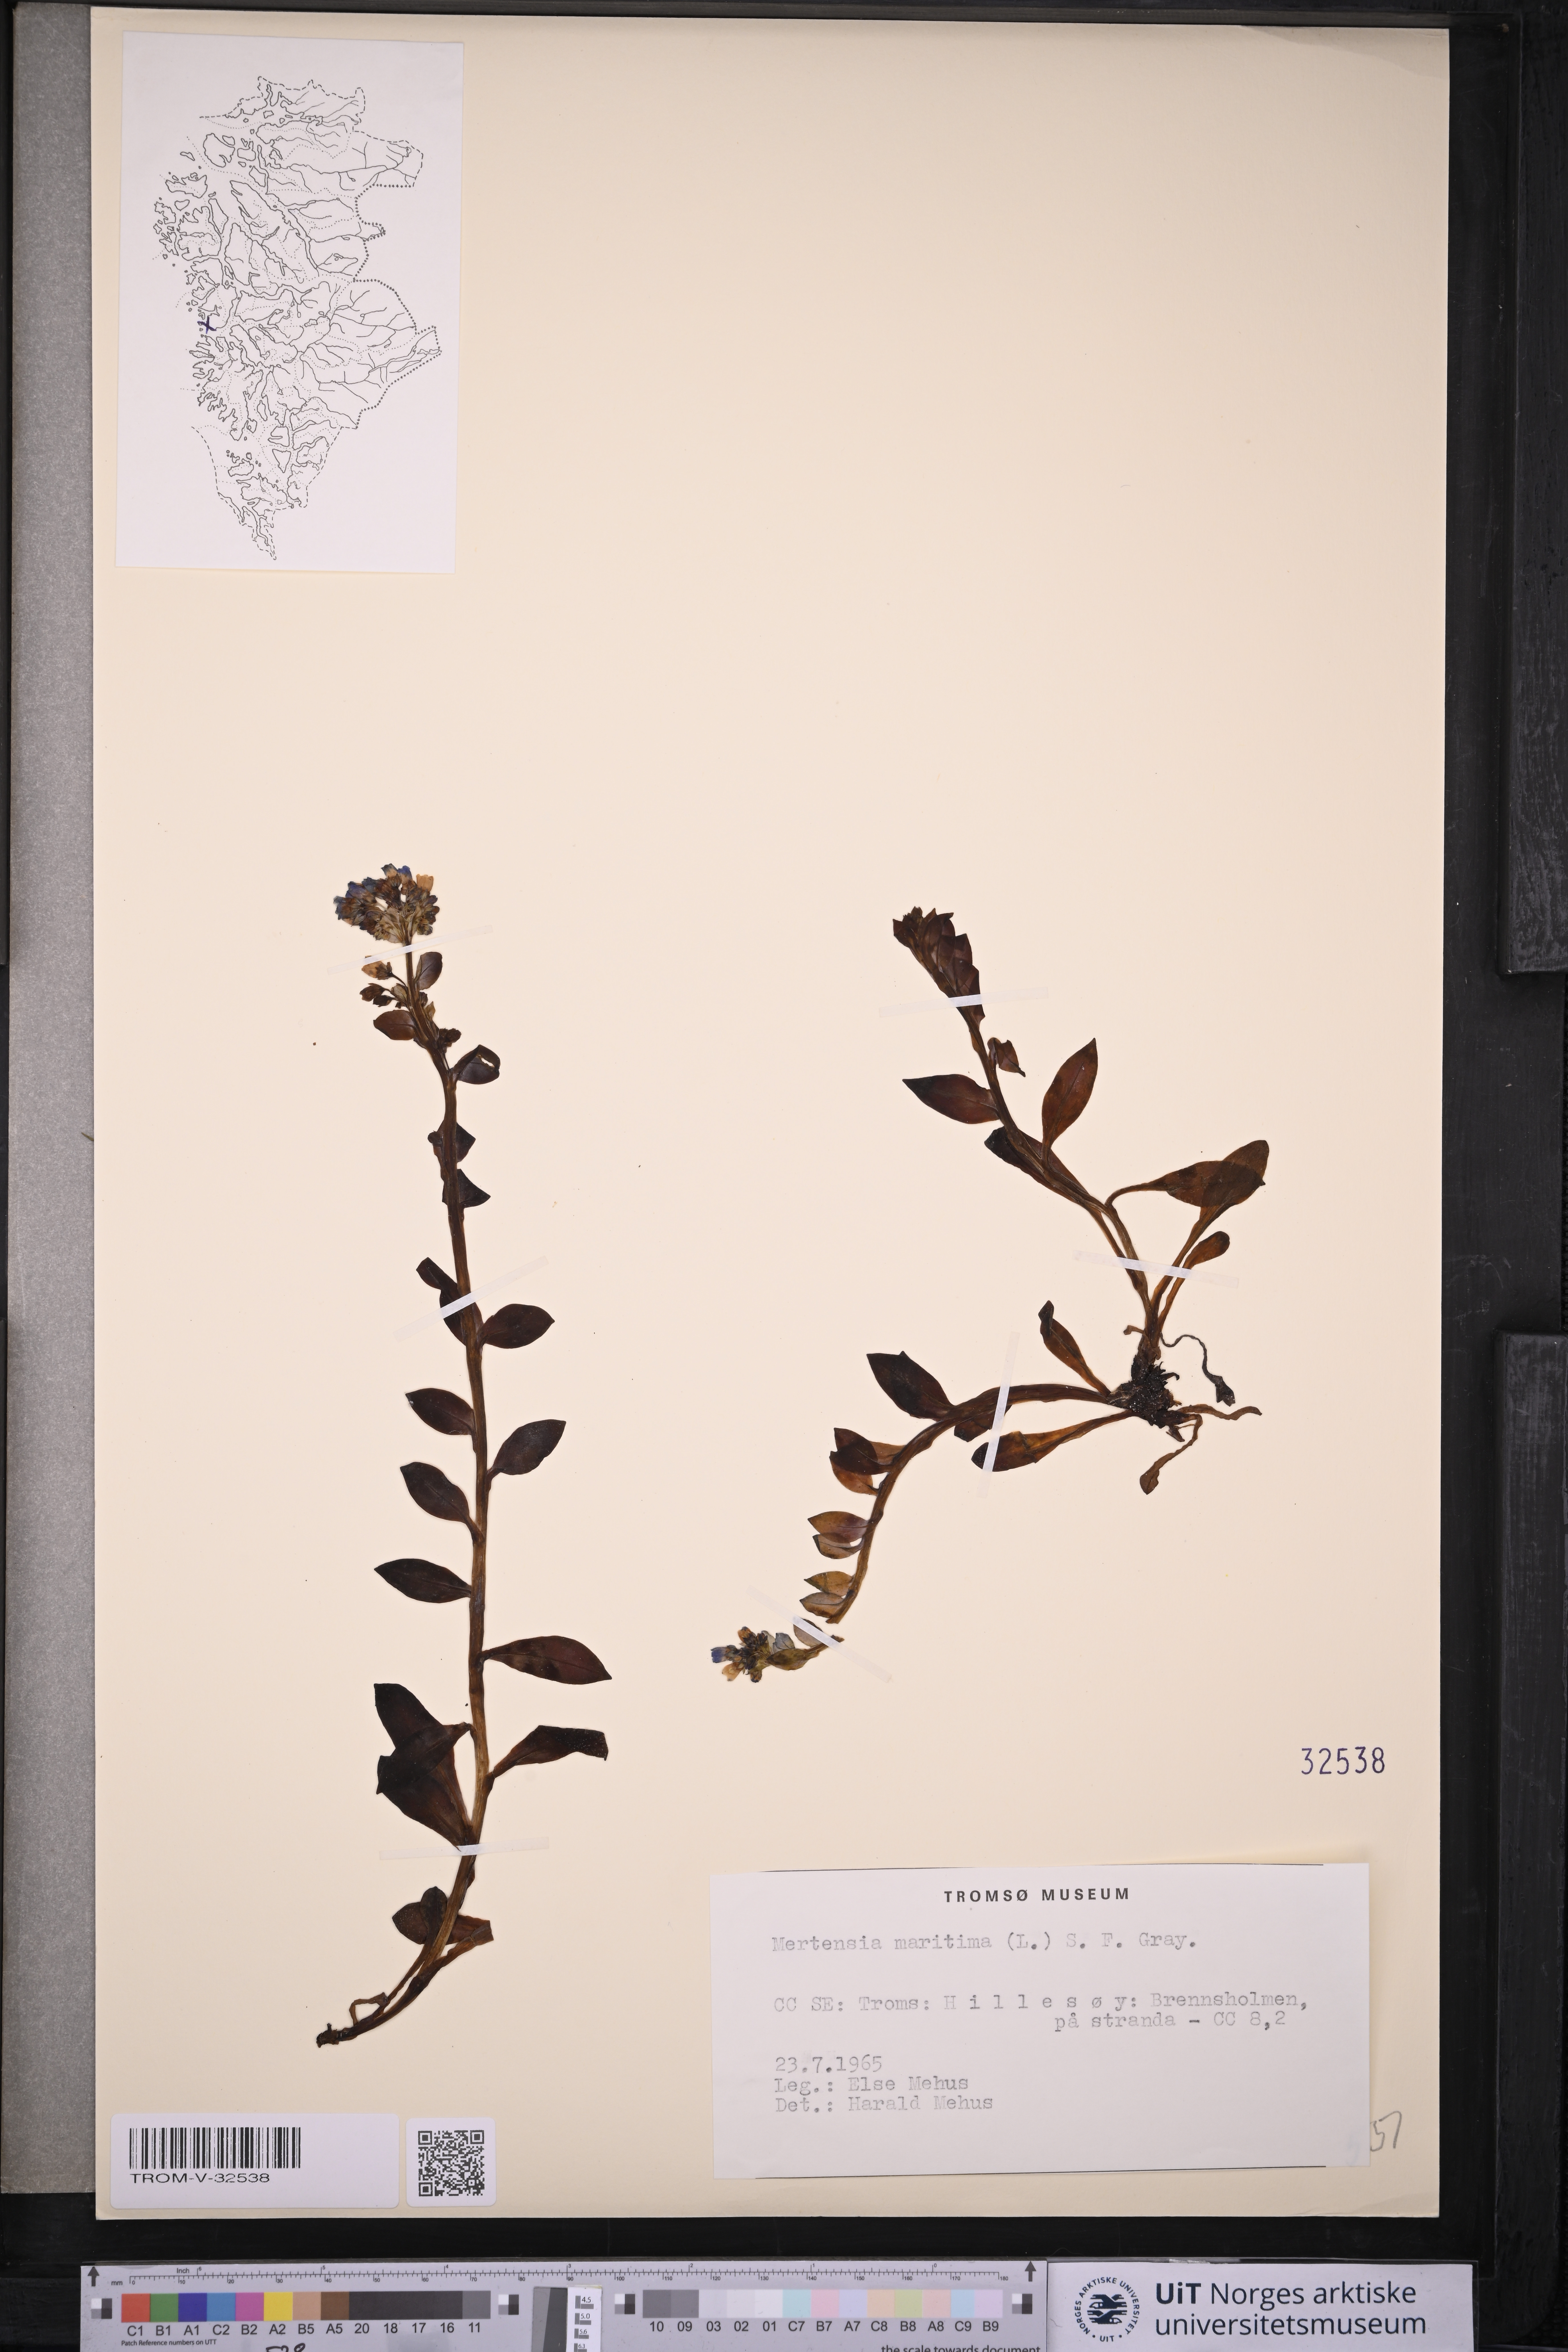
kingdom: Plantae
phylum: Tracheophyta
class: Magnoliopsida
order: Boraginales
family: Boraginaceae
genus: Mertensia
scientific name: Mertensia maritima
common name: Oysterplant
